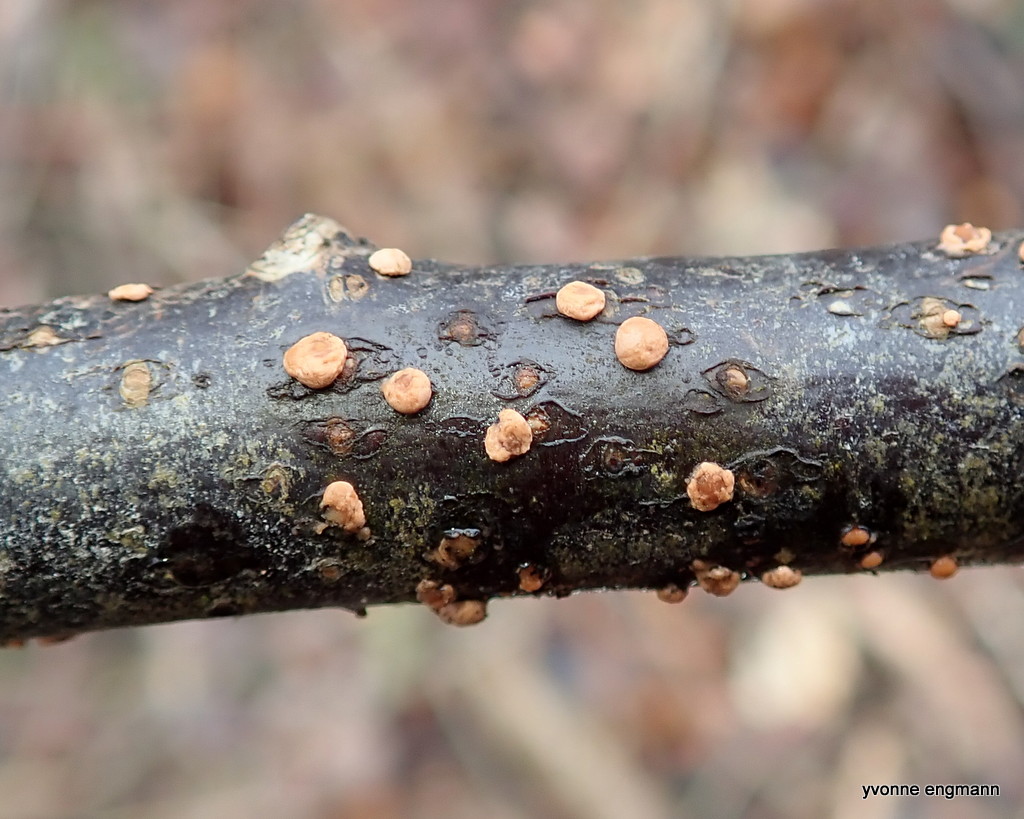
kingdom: Fungi
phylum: Ascomycota
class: Sordariomycetes
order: Hypocreales
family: Nectriaceae
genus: Nectria
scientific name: Nectria cinnabarina
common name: almindelig cinnobersvamp
